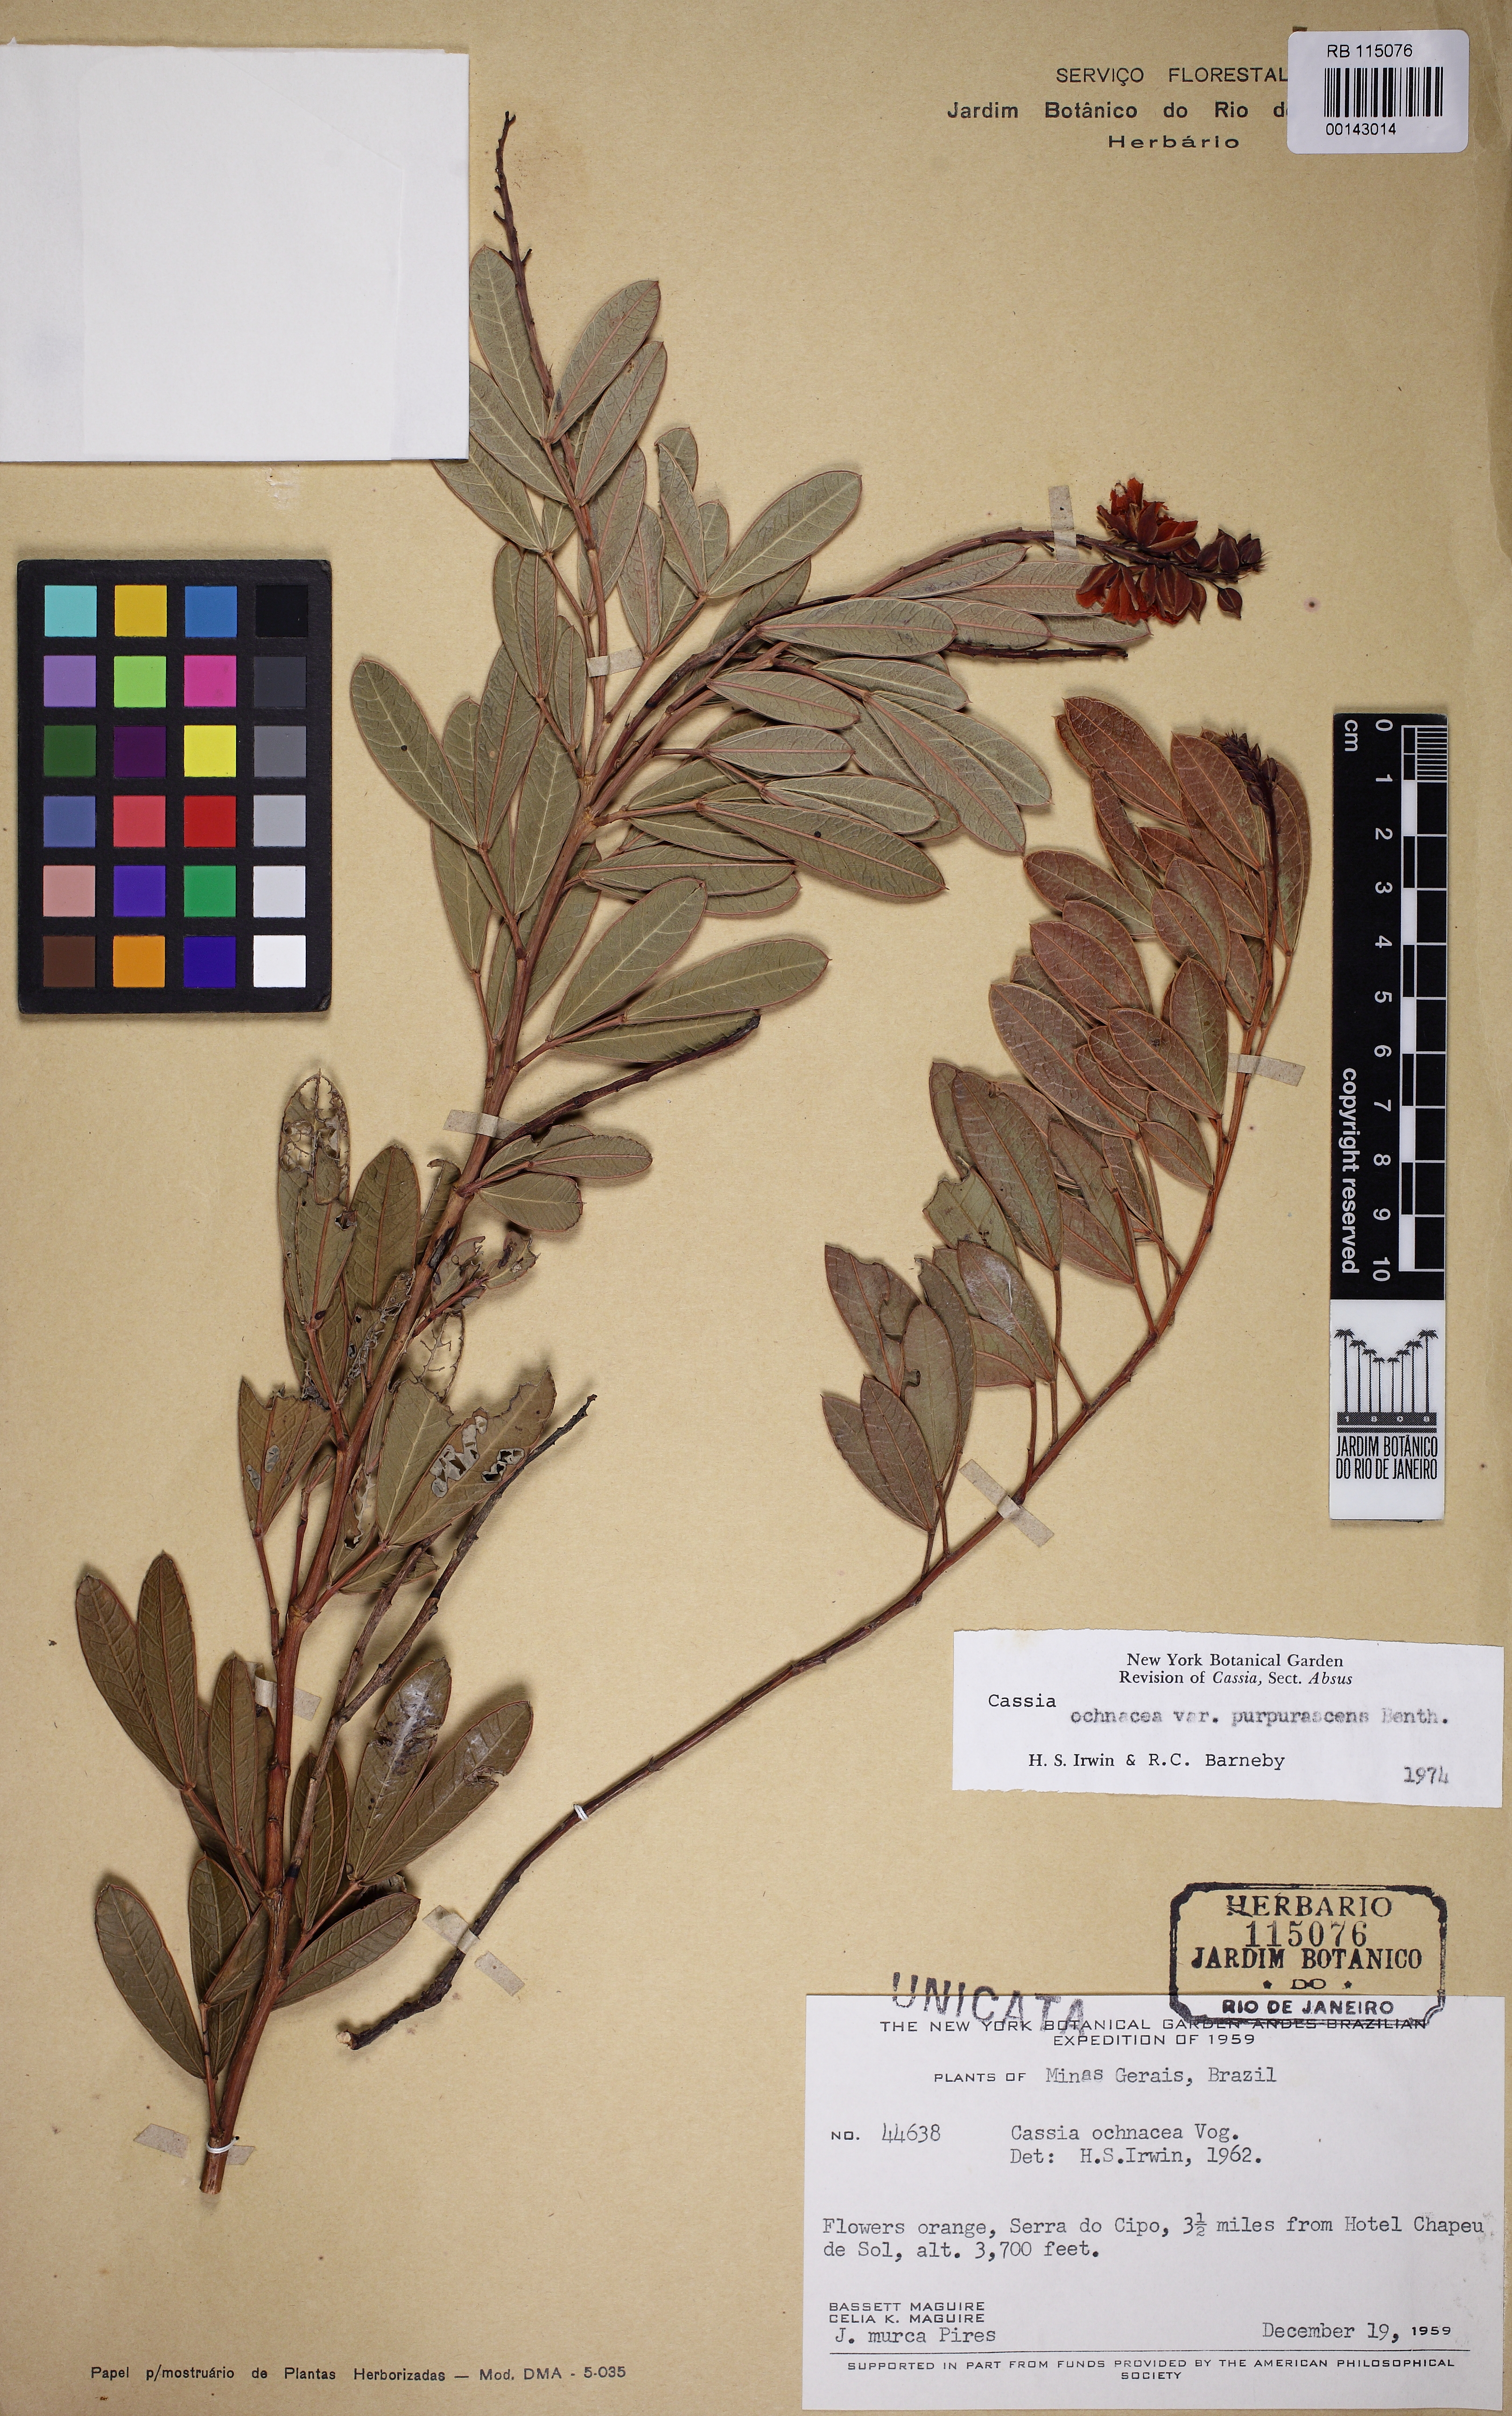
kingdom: Plantae
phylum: Tracheophyta
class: Magnoliopsida
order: Fabales
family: Fabaceae
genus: Chamaecrista
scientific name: Chamaecrista ochnacea
